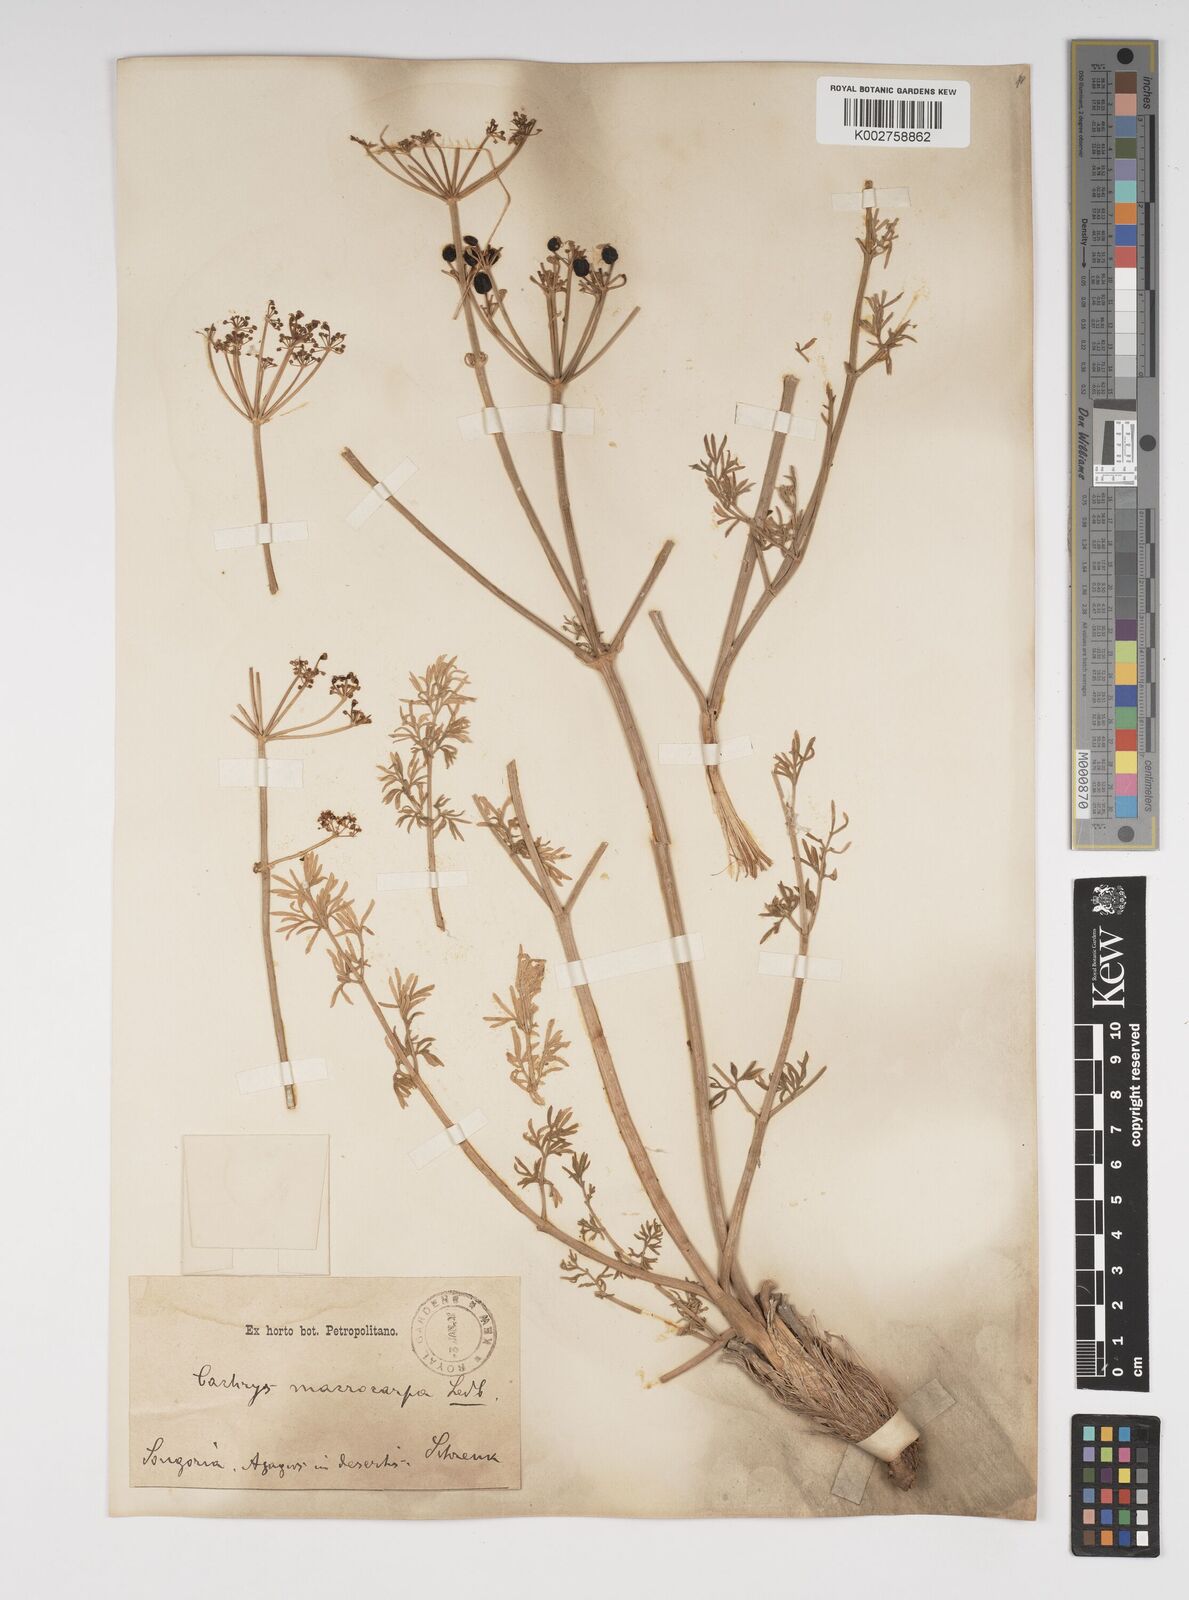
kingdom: Plantae
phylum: Tracheophyta
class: Magnoliopsida
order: Apiales
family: Apiaceae
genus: Prangos
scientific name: Prangos ferulacea
